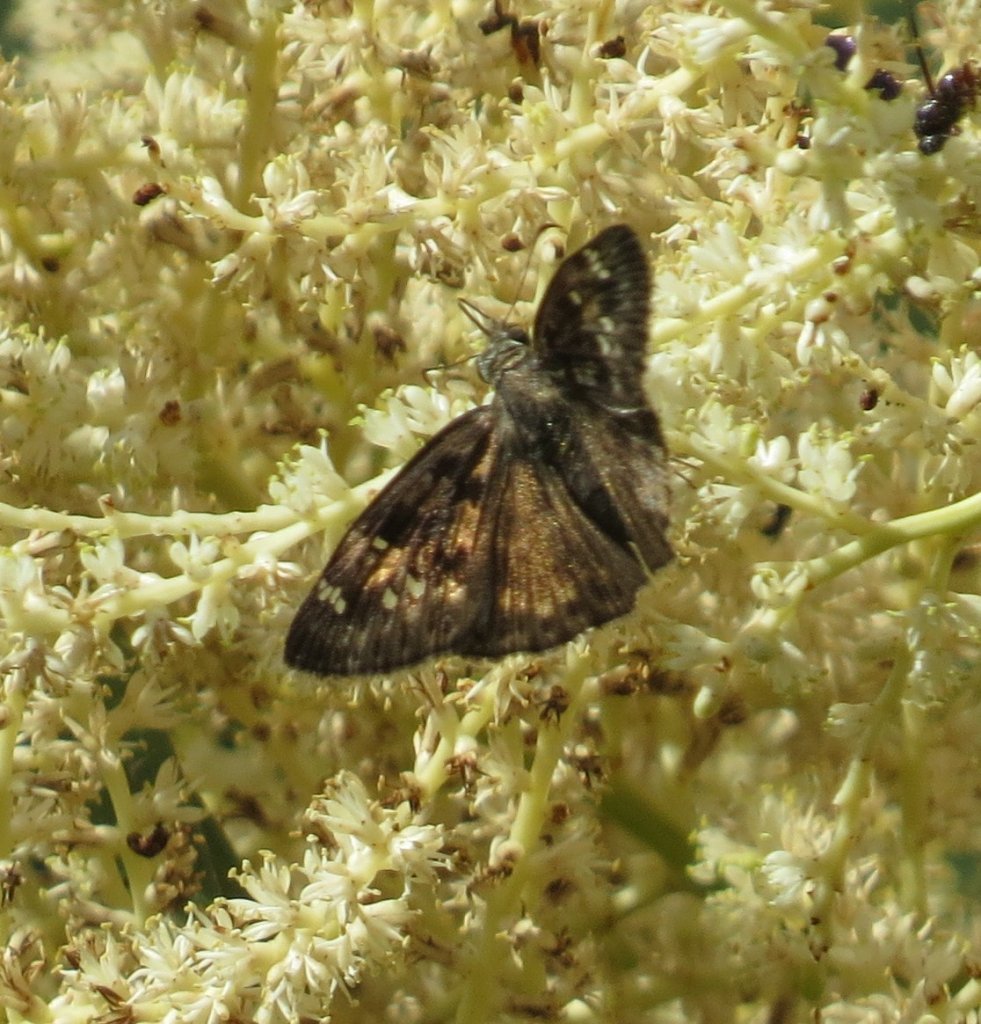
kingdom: Animalia
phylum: Arthropoda
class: Insecta
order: Lepidoptera
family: Hesperiidae
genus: Gesta
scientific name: Gesta
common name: Horace's Duskywing
